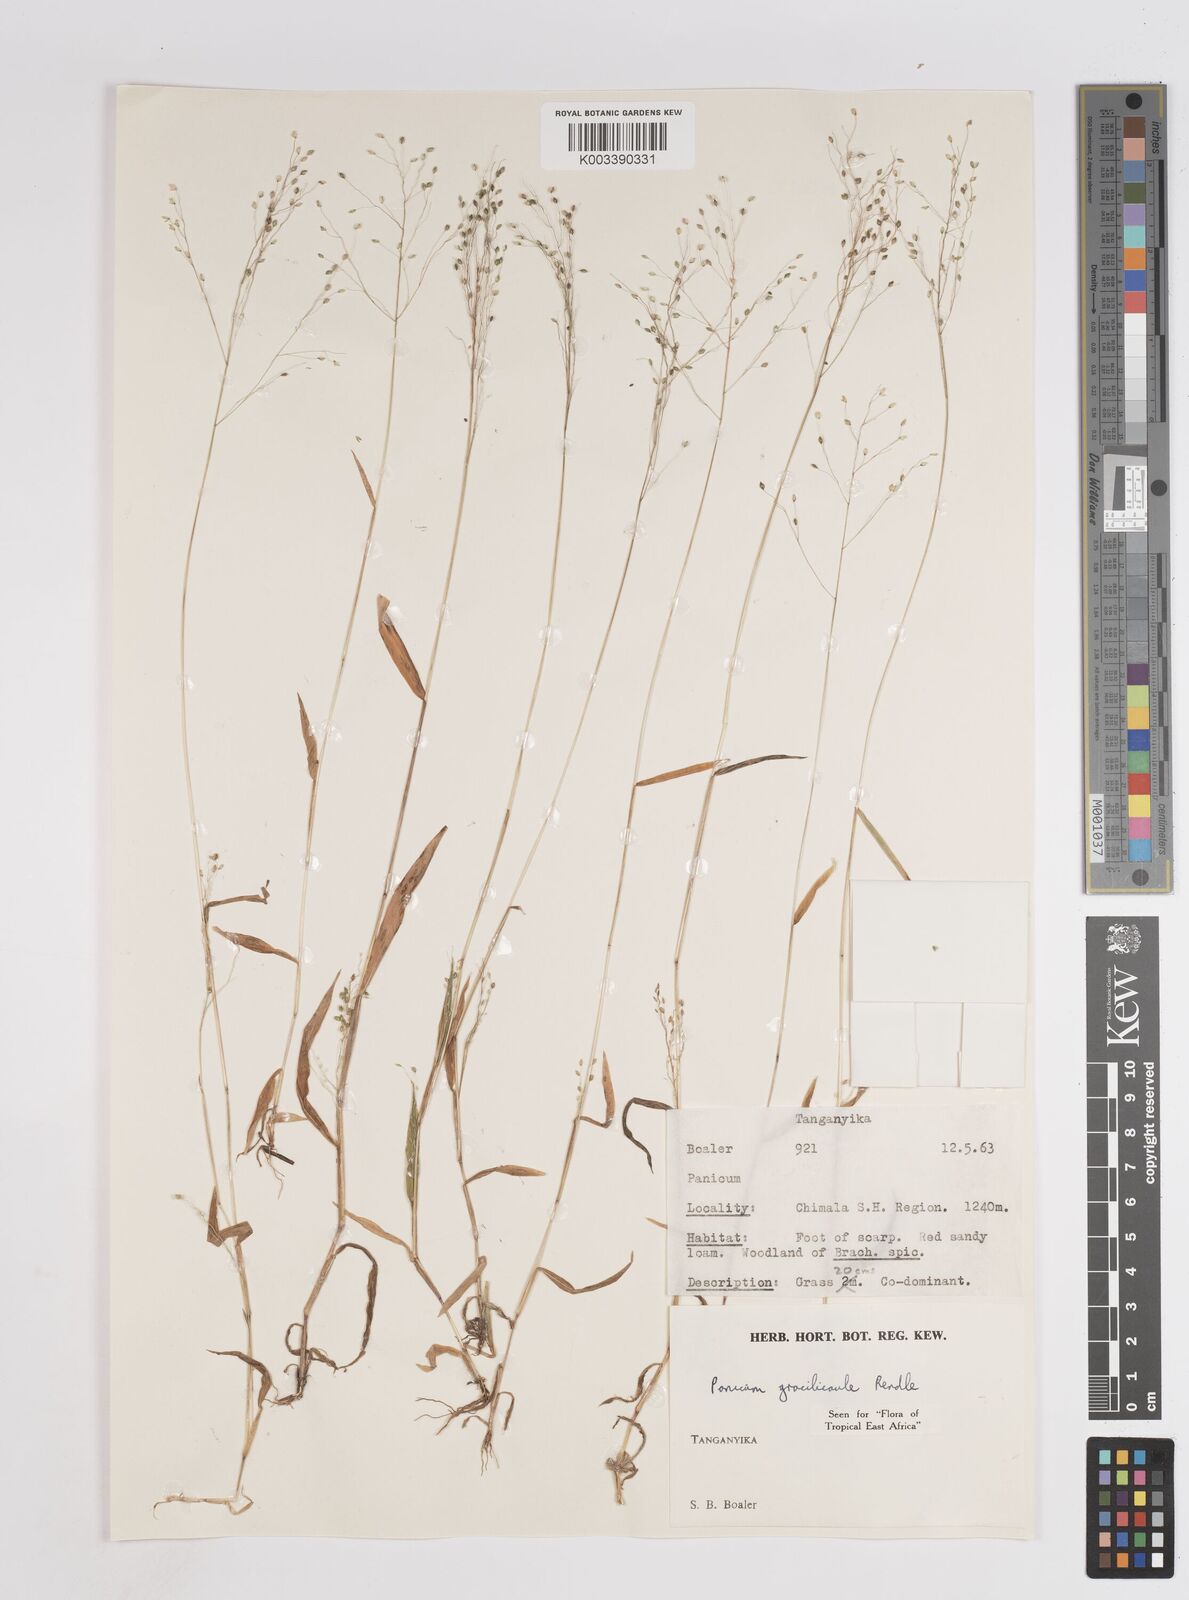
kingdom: Plantae
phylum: Tracheophyta
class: Liliopsida
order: Poales
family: Poaceae
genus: Trichanthecium
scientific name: Trichanthecium gracilicaule
